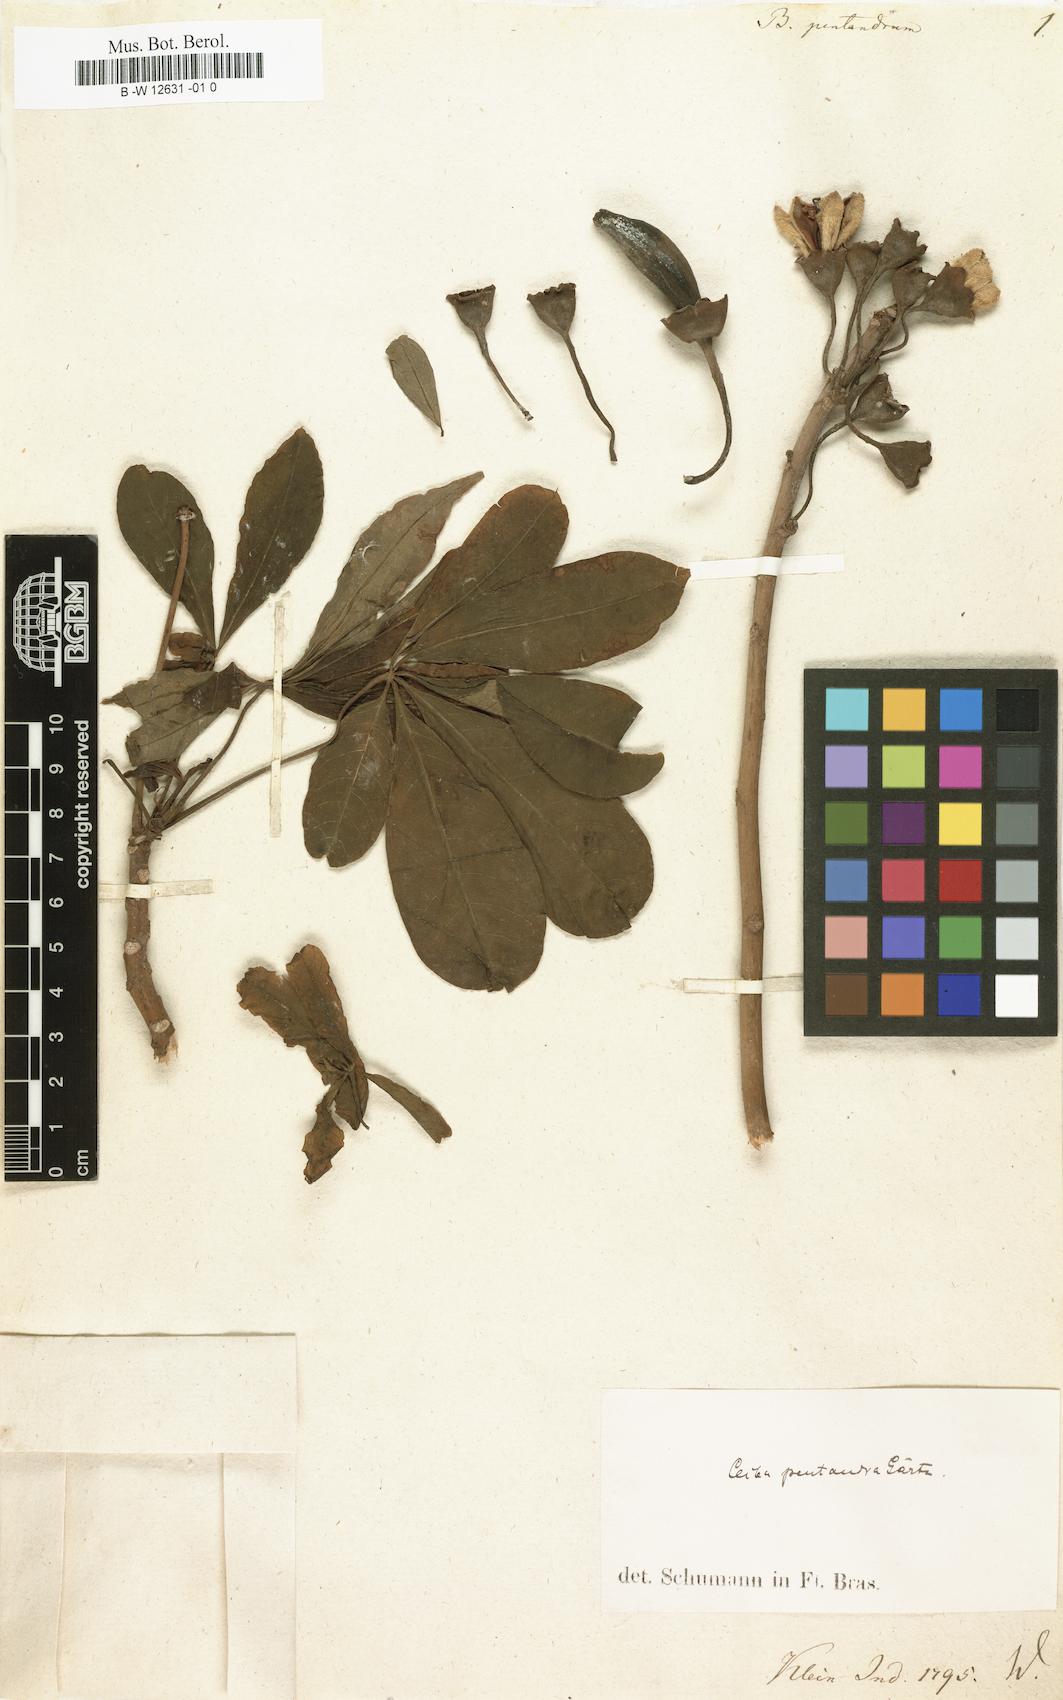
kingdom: Plantae
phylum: Tracheophyta
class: Magnoliopsida
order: Malvales
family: Malvaceae
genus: Ceiba
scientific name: Ceiba pentandra
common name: Kapok
